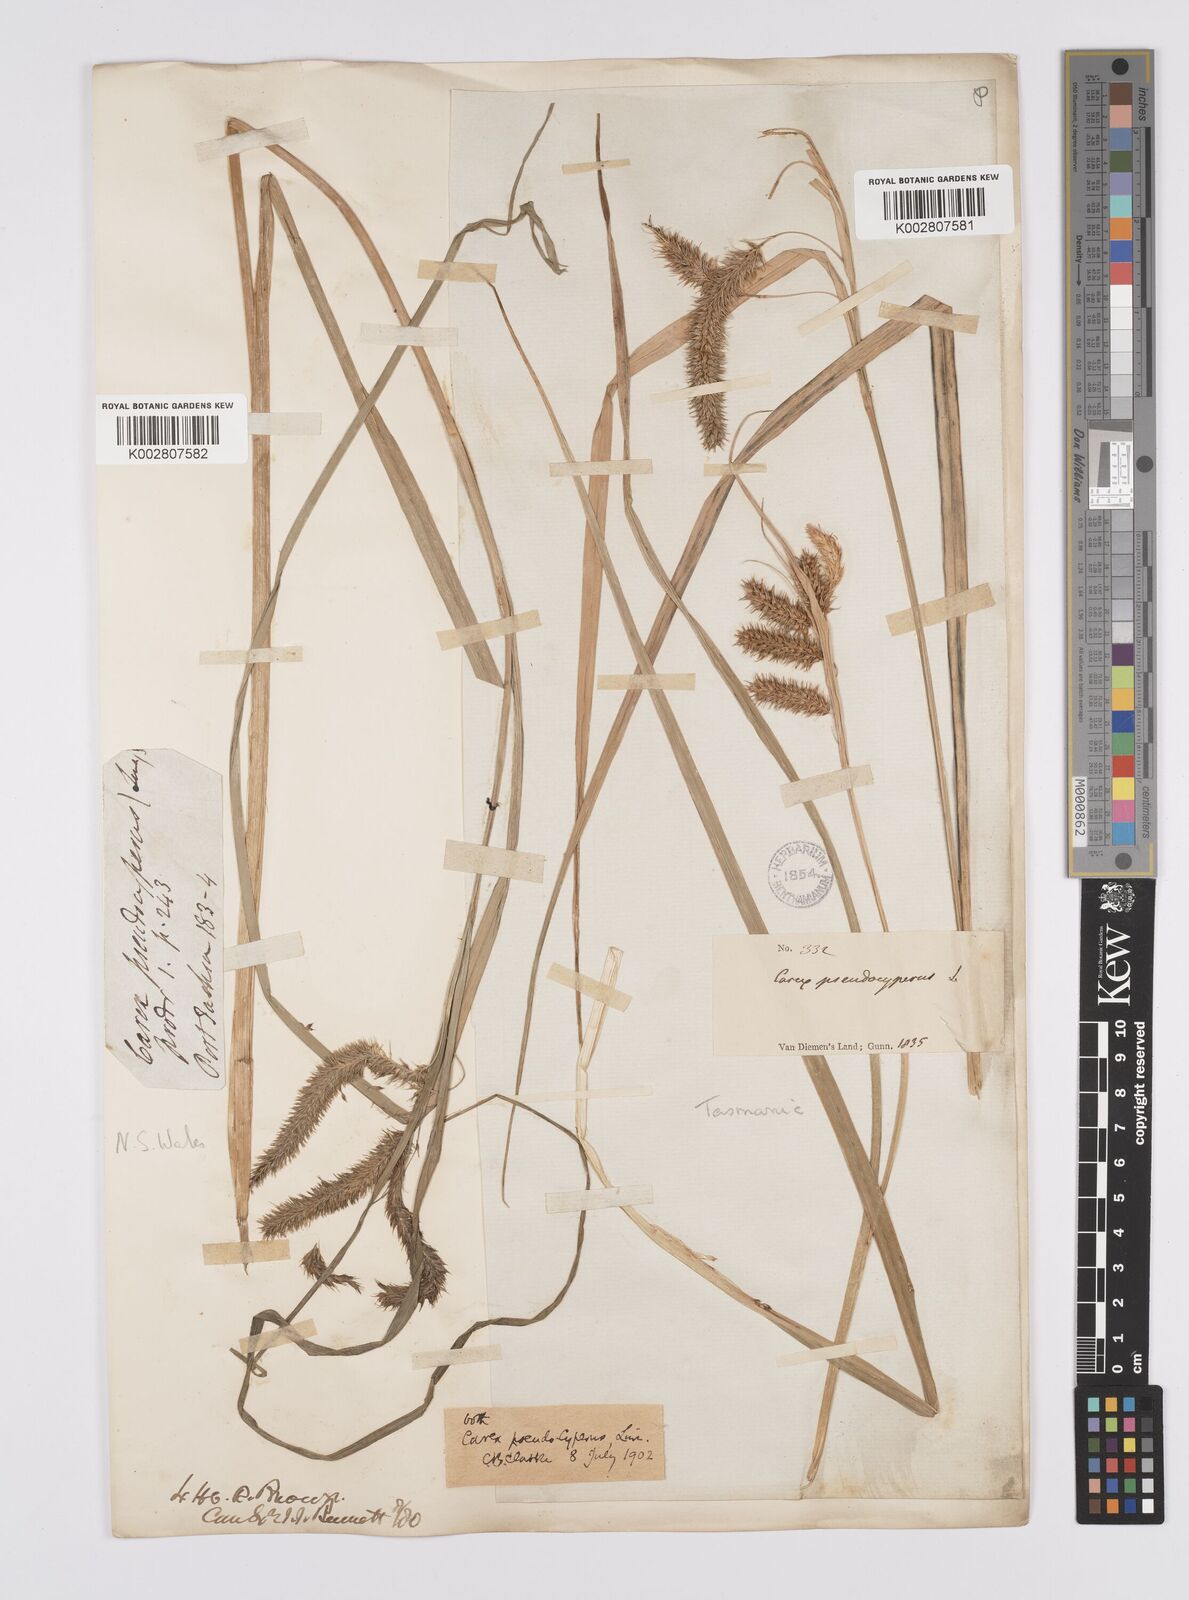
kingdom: Plantae
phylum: Tracheophyta
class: Liliopsida
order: Poales
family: Cyperaceae
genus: Carex
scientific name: Carex fascicularis
